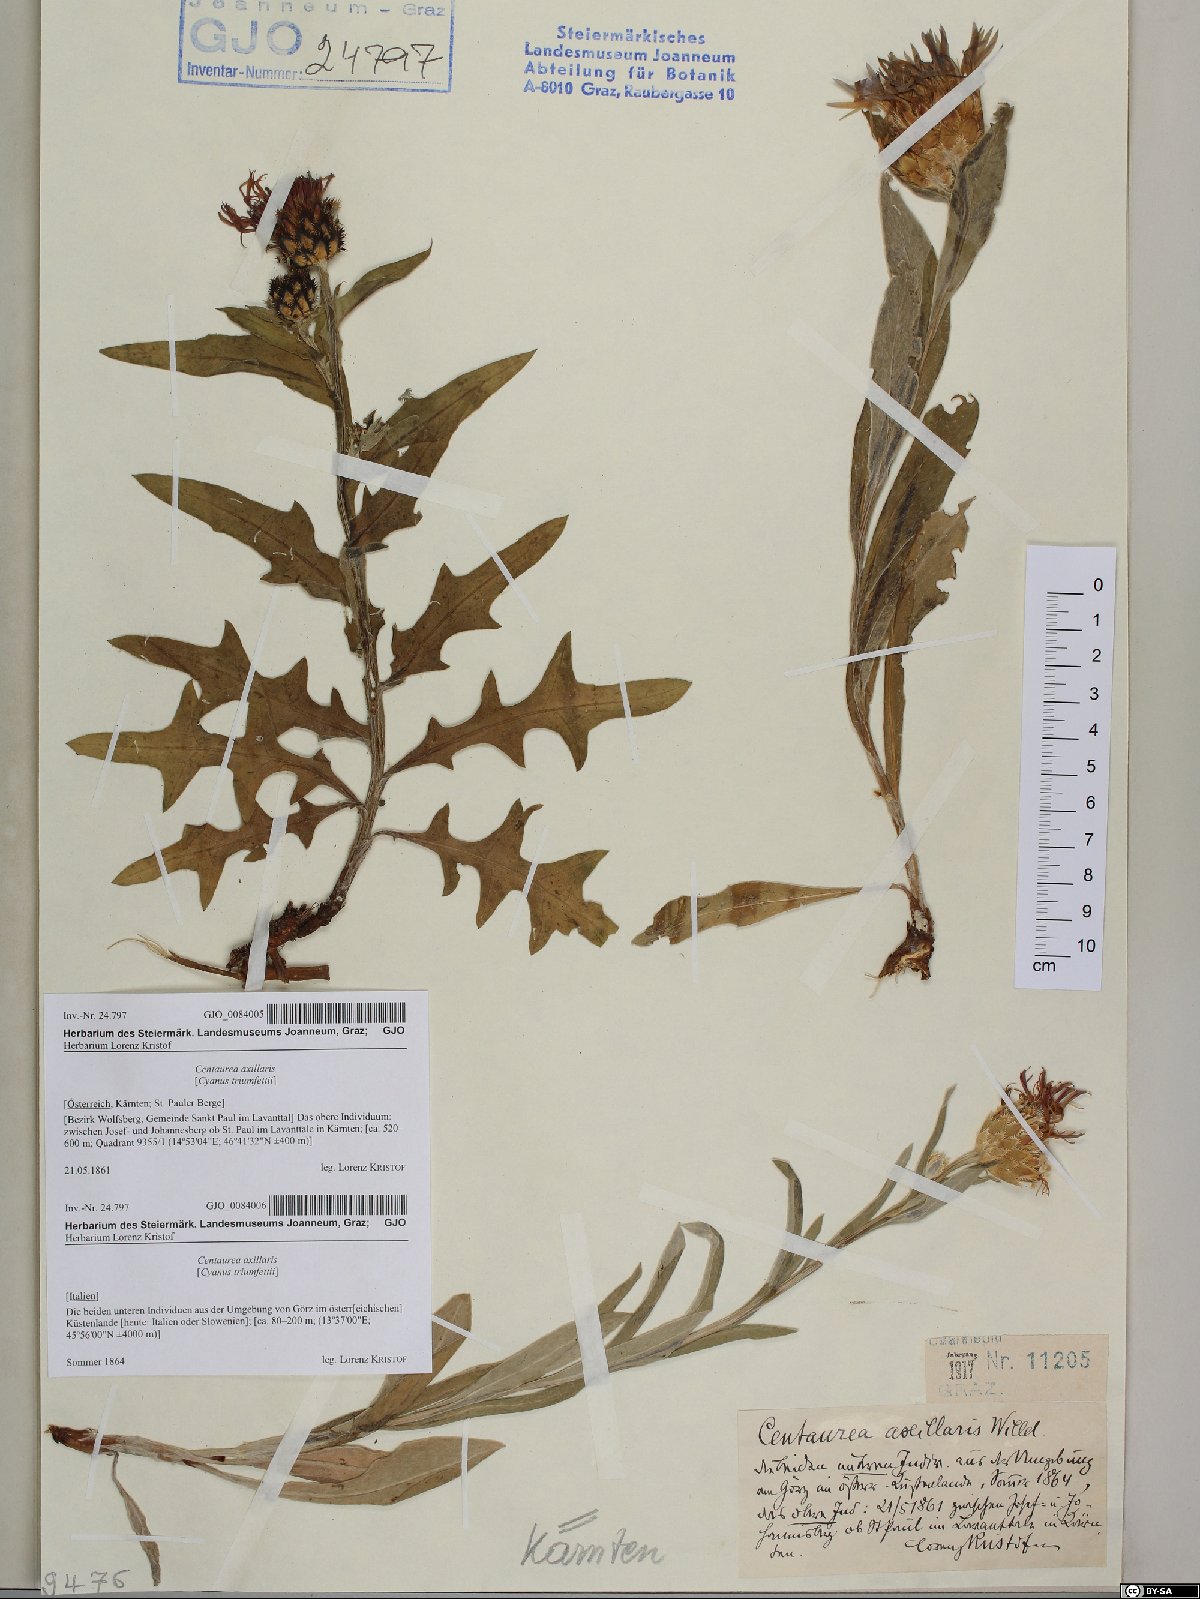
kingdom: Plantae
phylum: Tracheophyta
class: Magnoliopsida
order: Asterales
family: Asteraceae
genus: Centaurea
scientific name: Centaurea triumfettii
